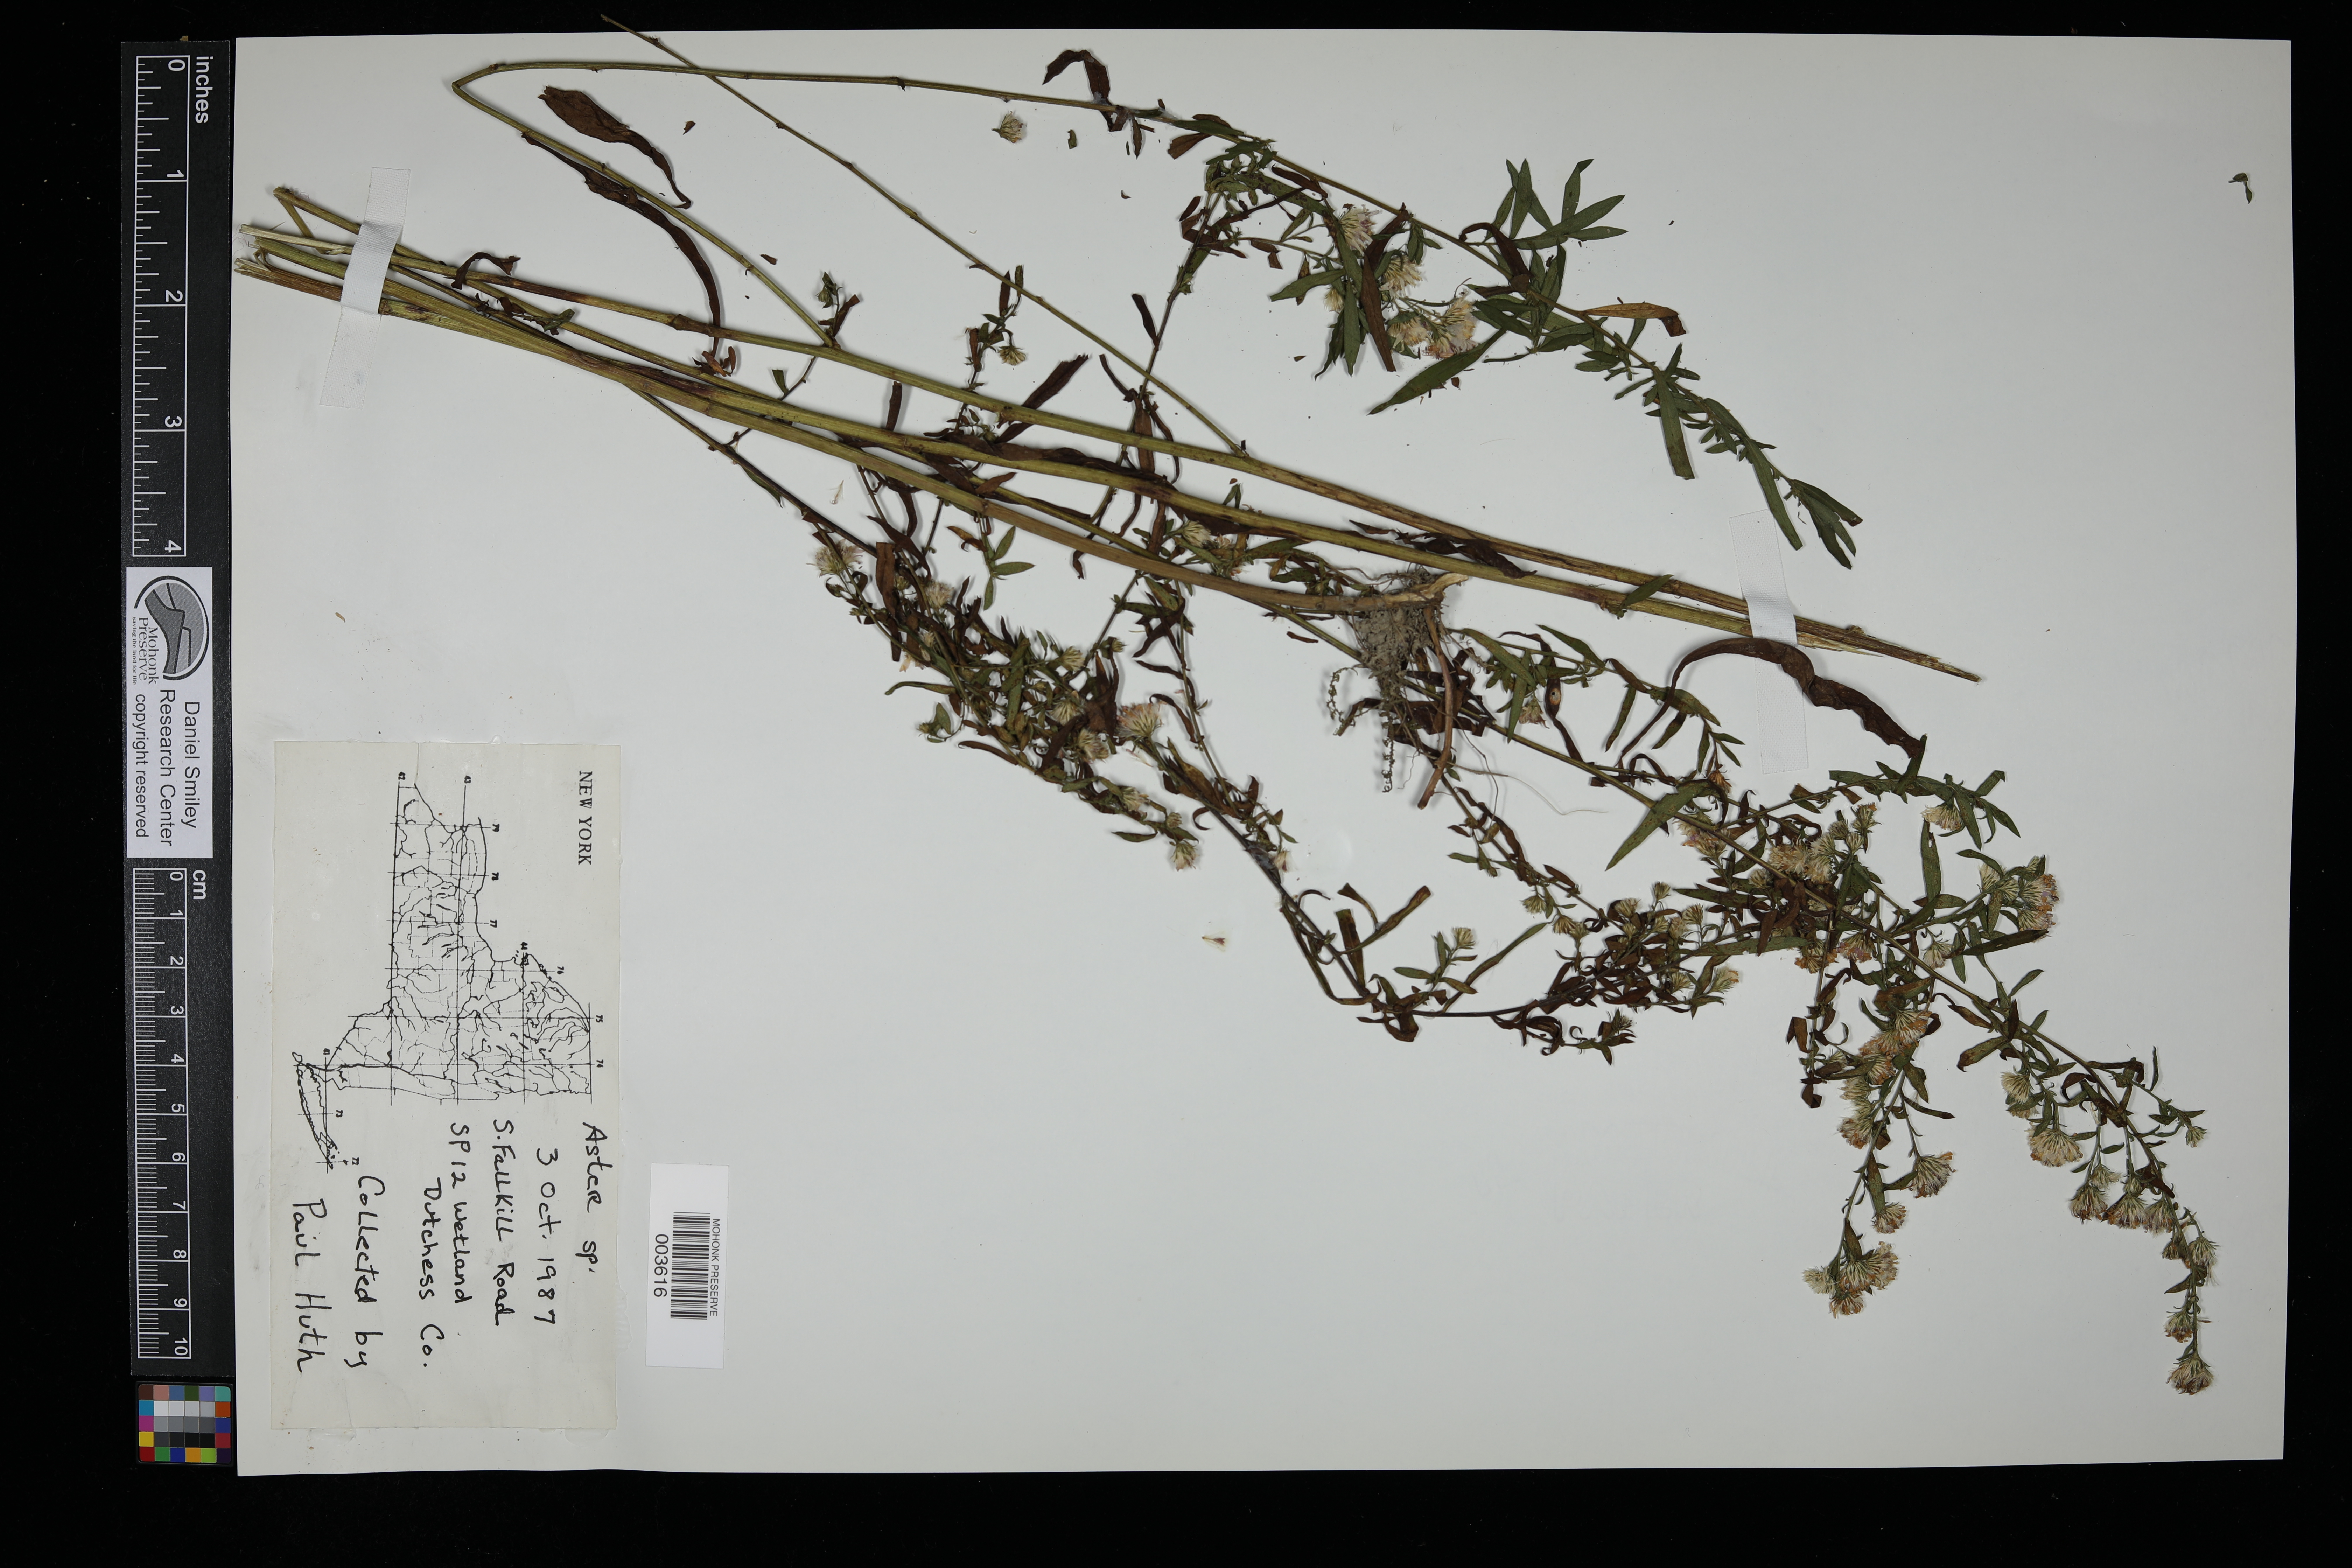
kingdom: Plantae
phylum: Tracheophyta
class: Magnoliopsida
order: Asterales
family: Asteraceae
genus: Aster
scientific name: Aster
